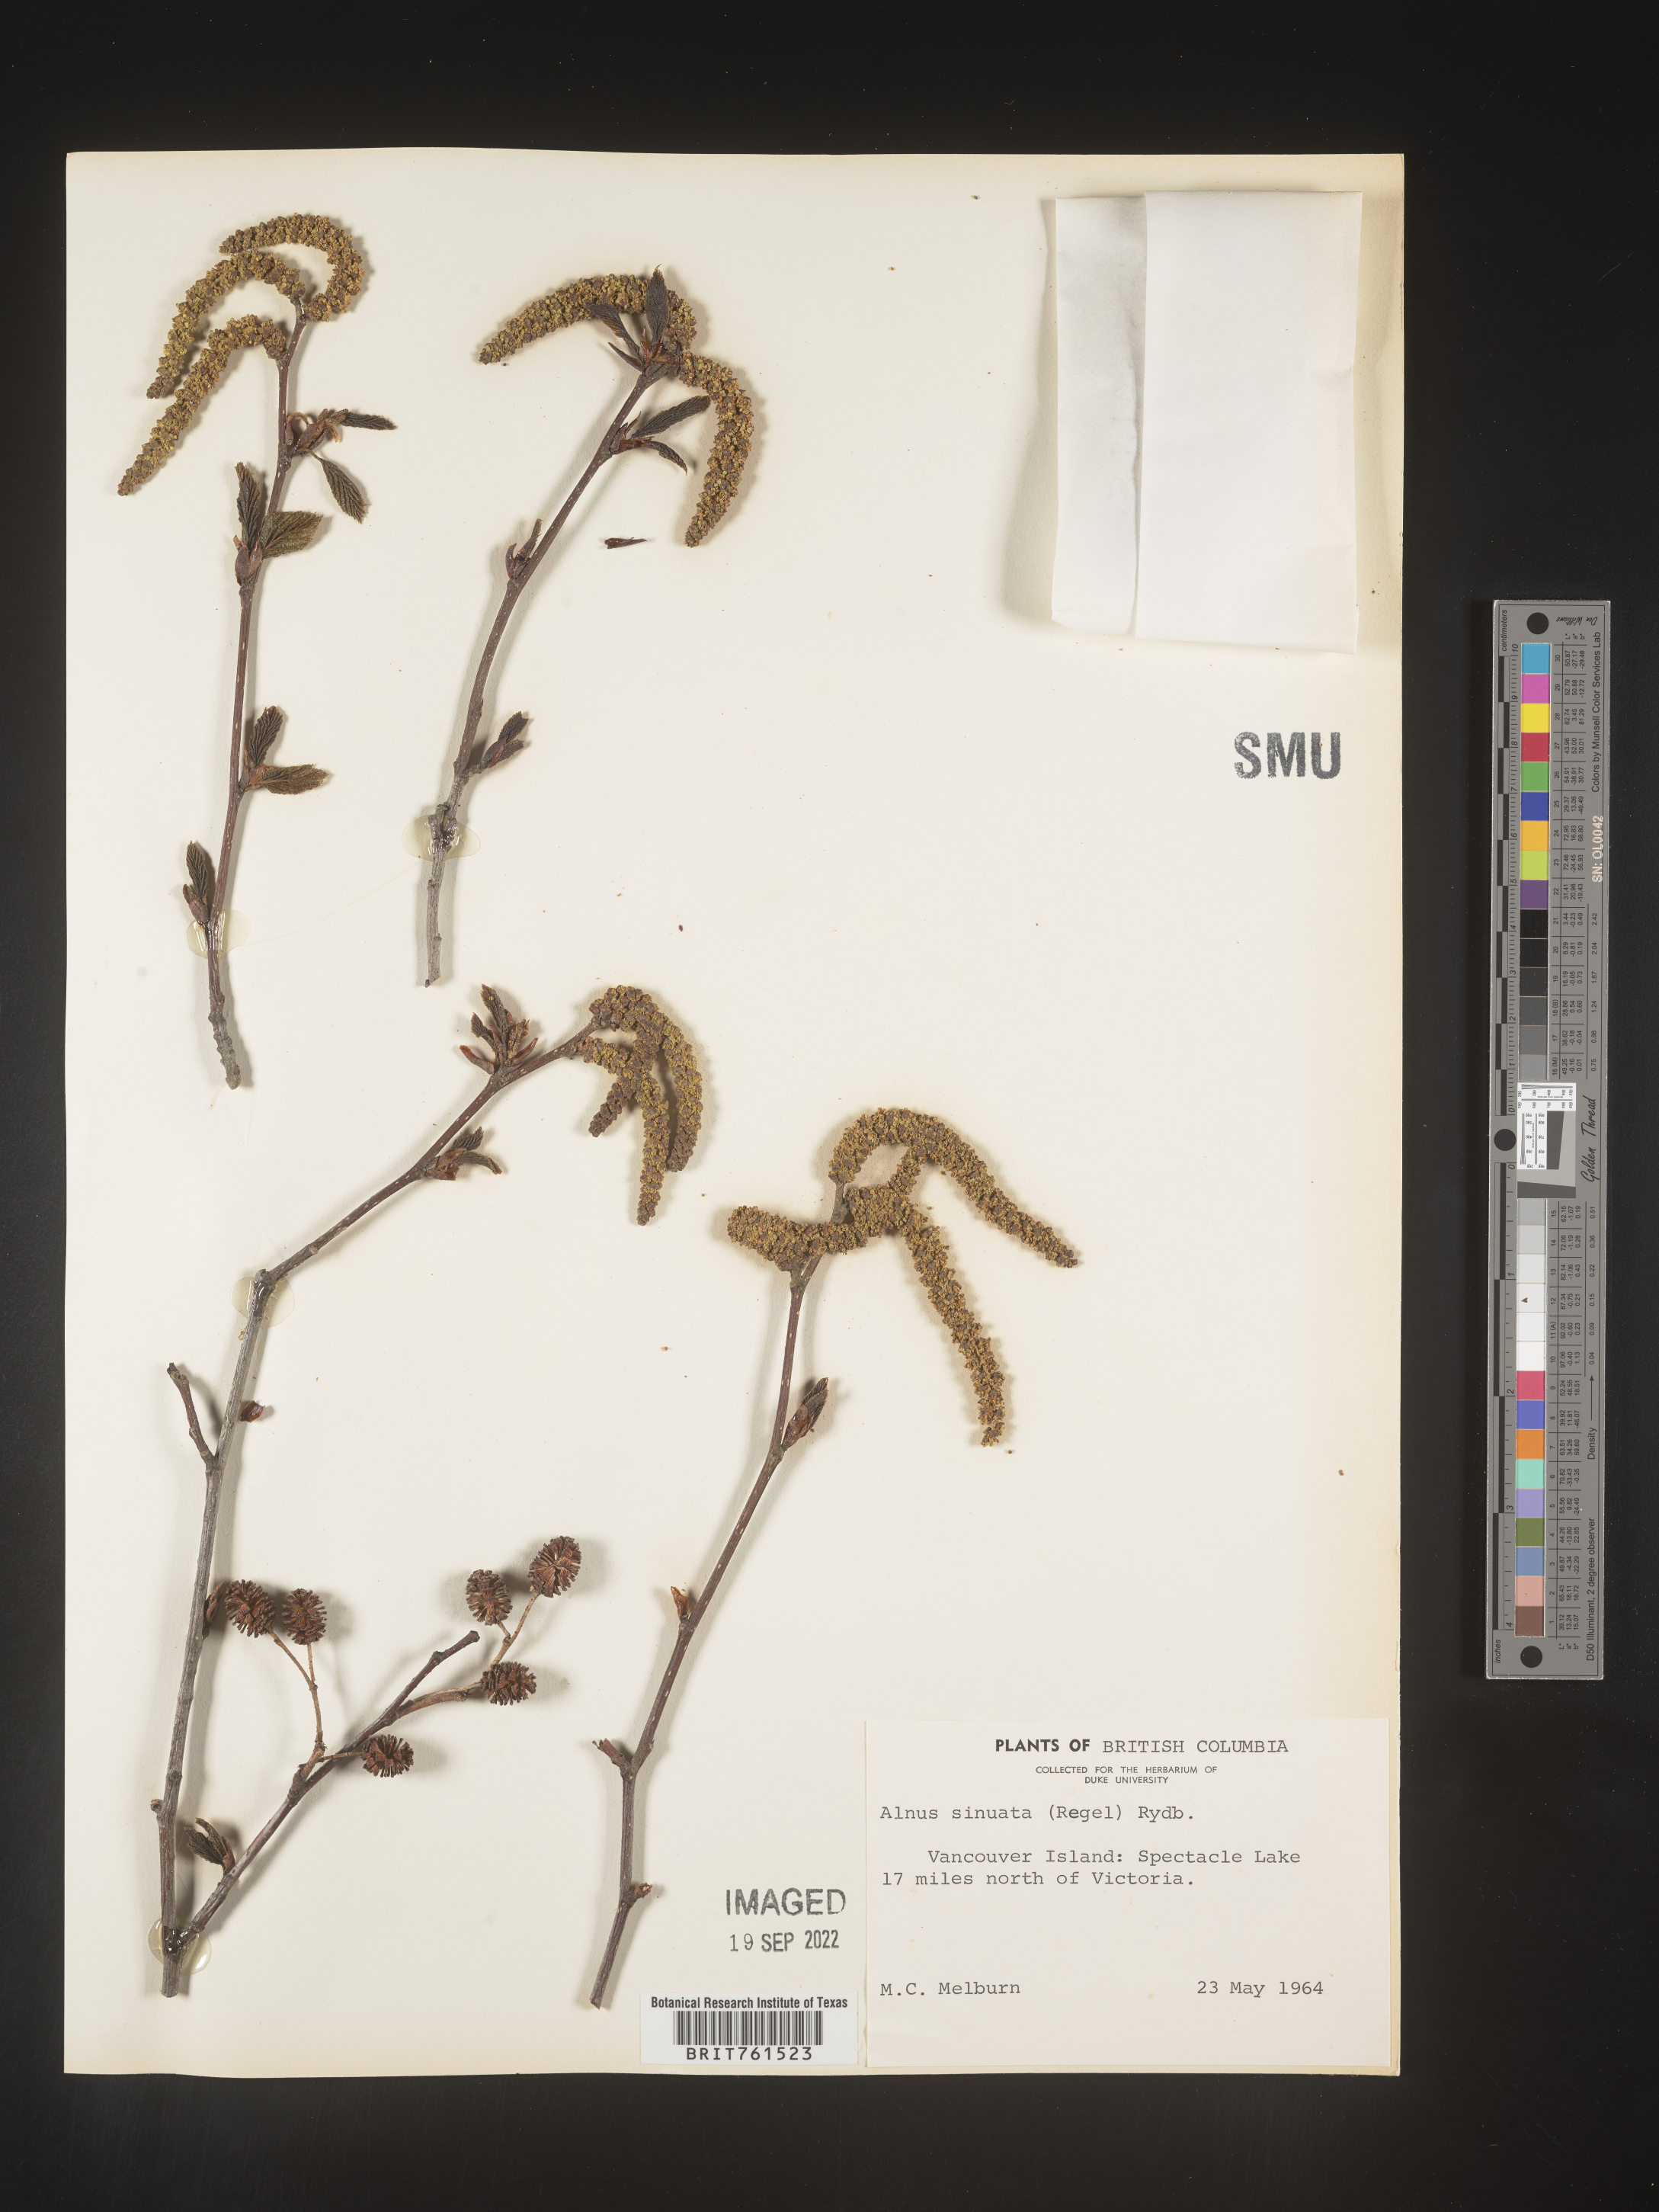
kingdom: Plantae
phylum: Tracheophyta
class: Magnoliopsida
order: Fagales
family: Betulaceae
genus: Alnus
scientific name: Alnus alnobetula
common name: Green alder
